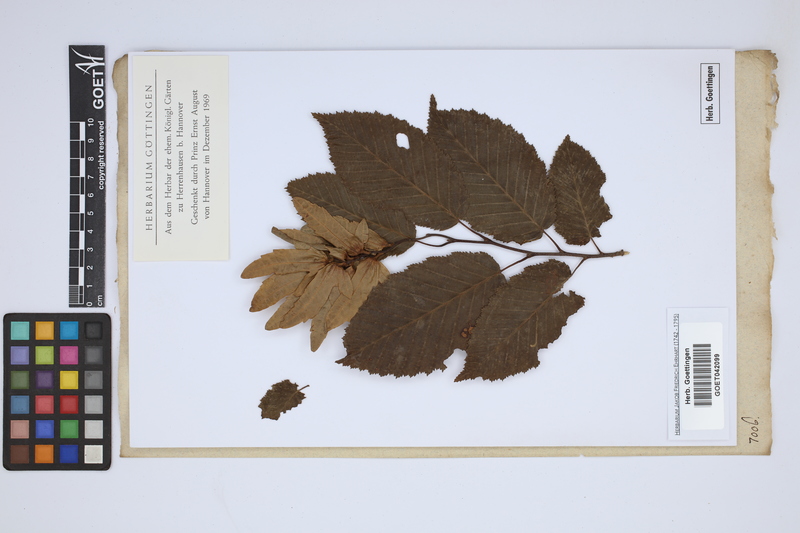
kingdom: Plantae
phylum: Tracheophyta
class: Magnoliopsida
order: Fagales
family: Betulaceae
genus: Carpinus
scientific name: Carpinus betulus
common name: Hornbeam
